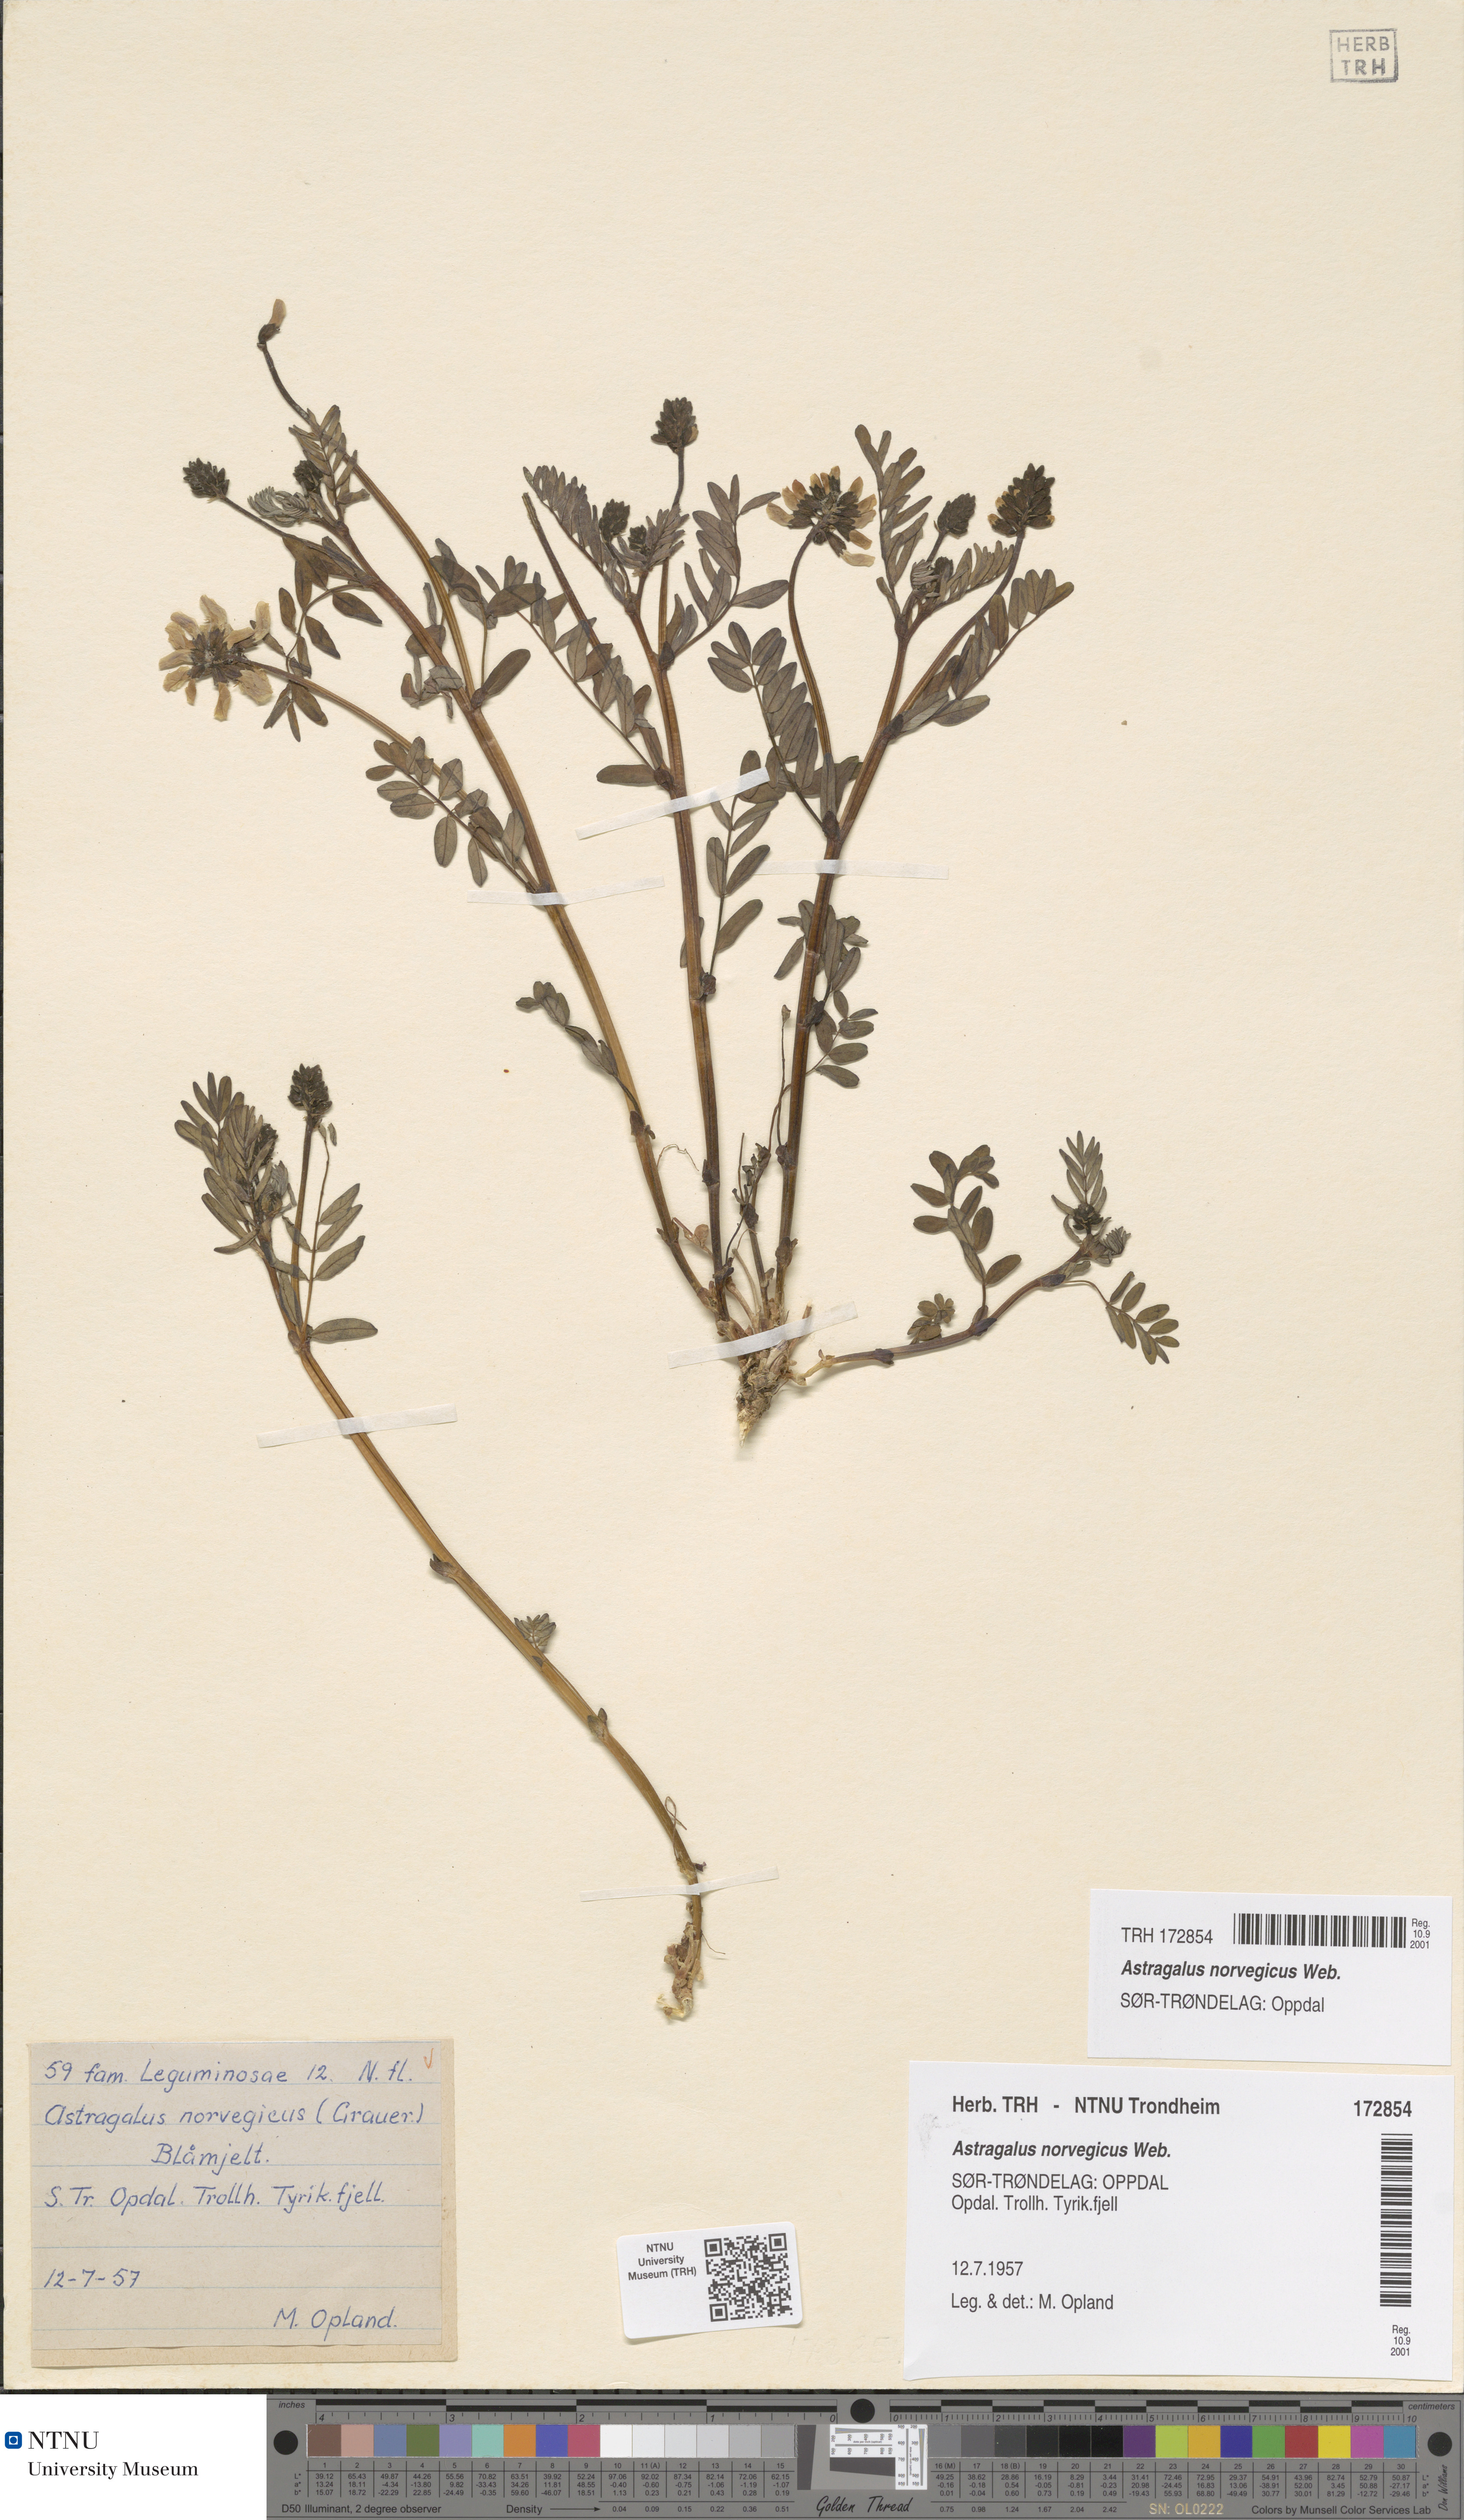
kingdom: Plantae
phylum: Tracheophyta
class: Magnoliopsida
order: Fabales
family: Fabaceae
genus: Astragalus
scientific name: Astragalus norvegicus
